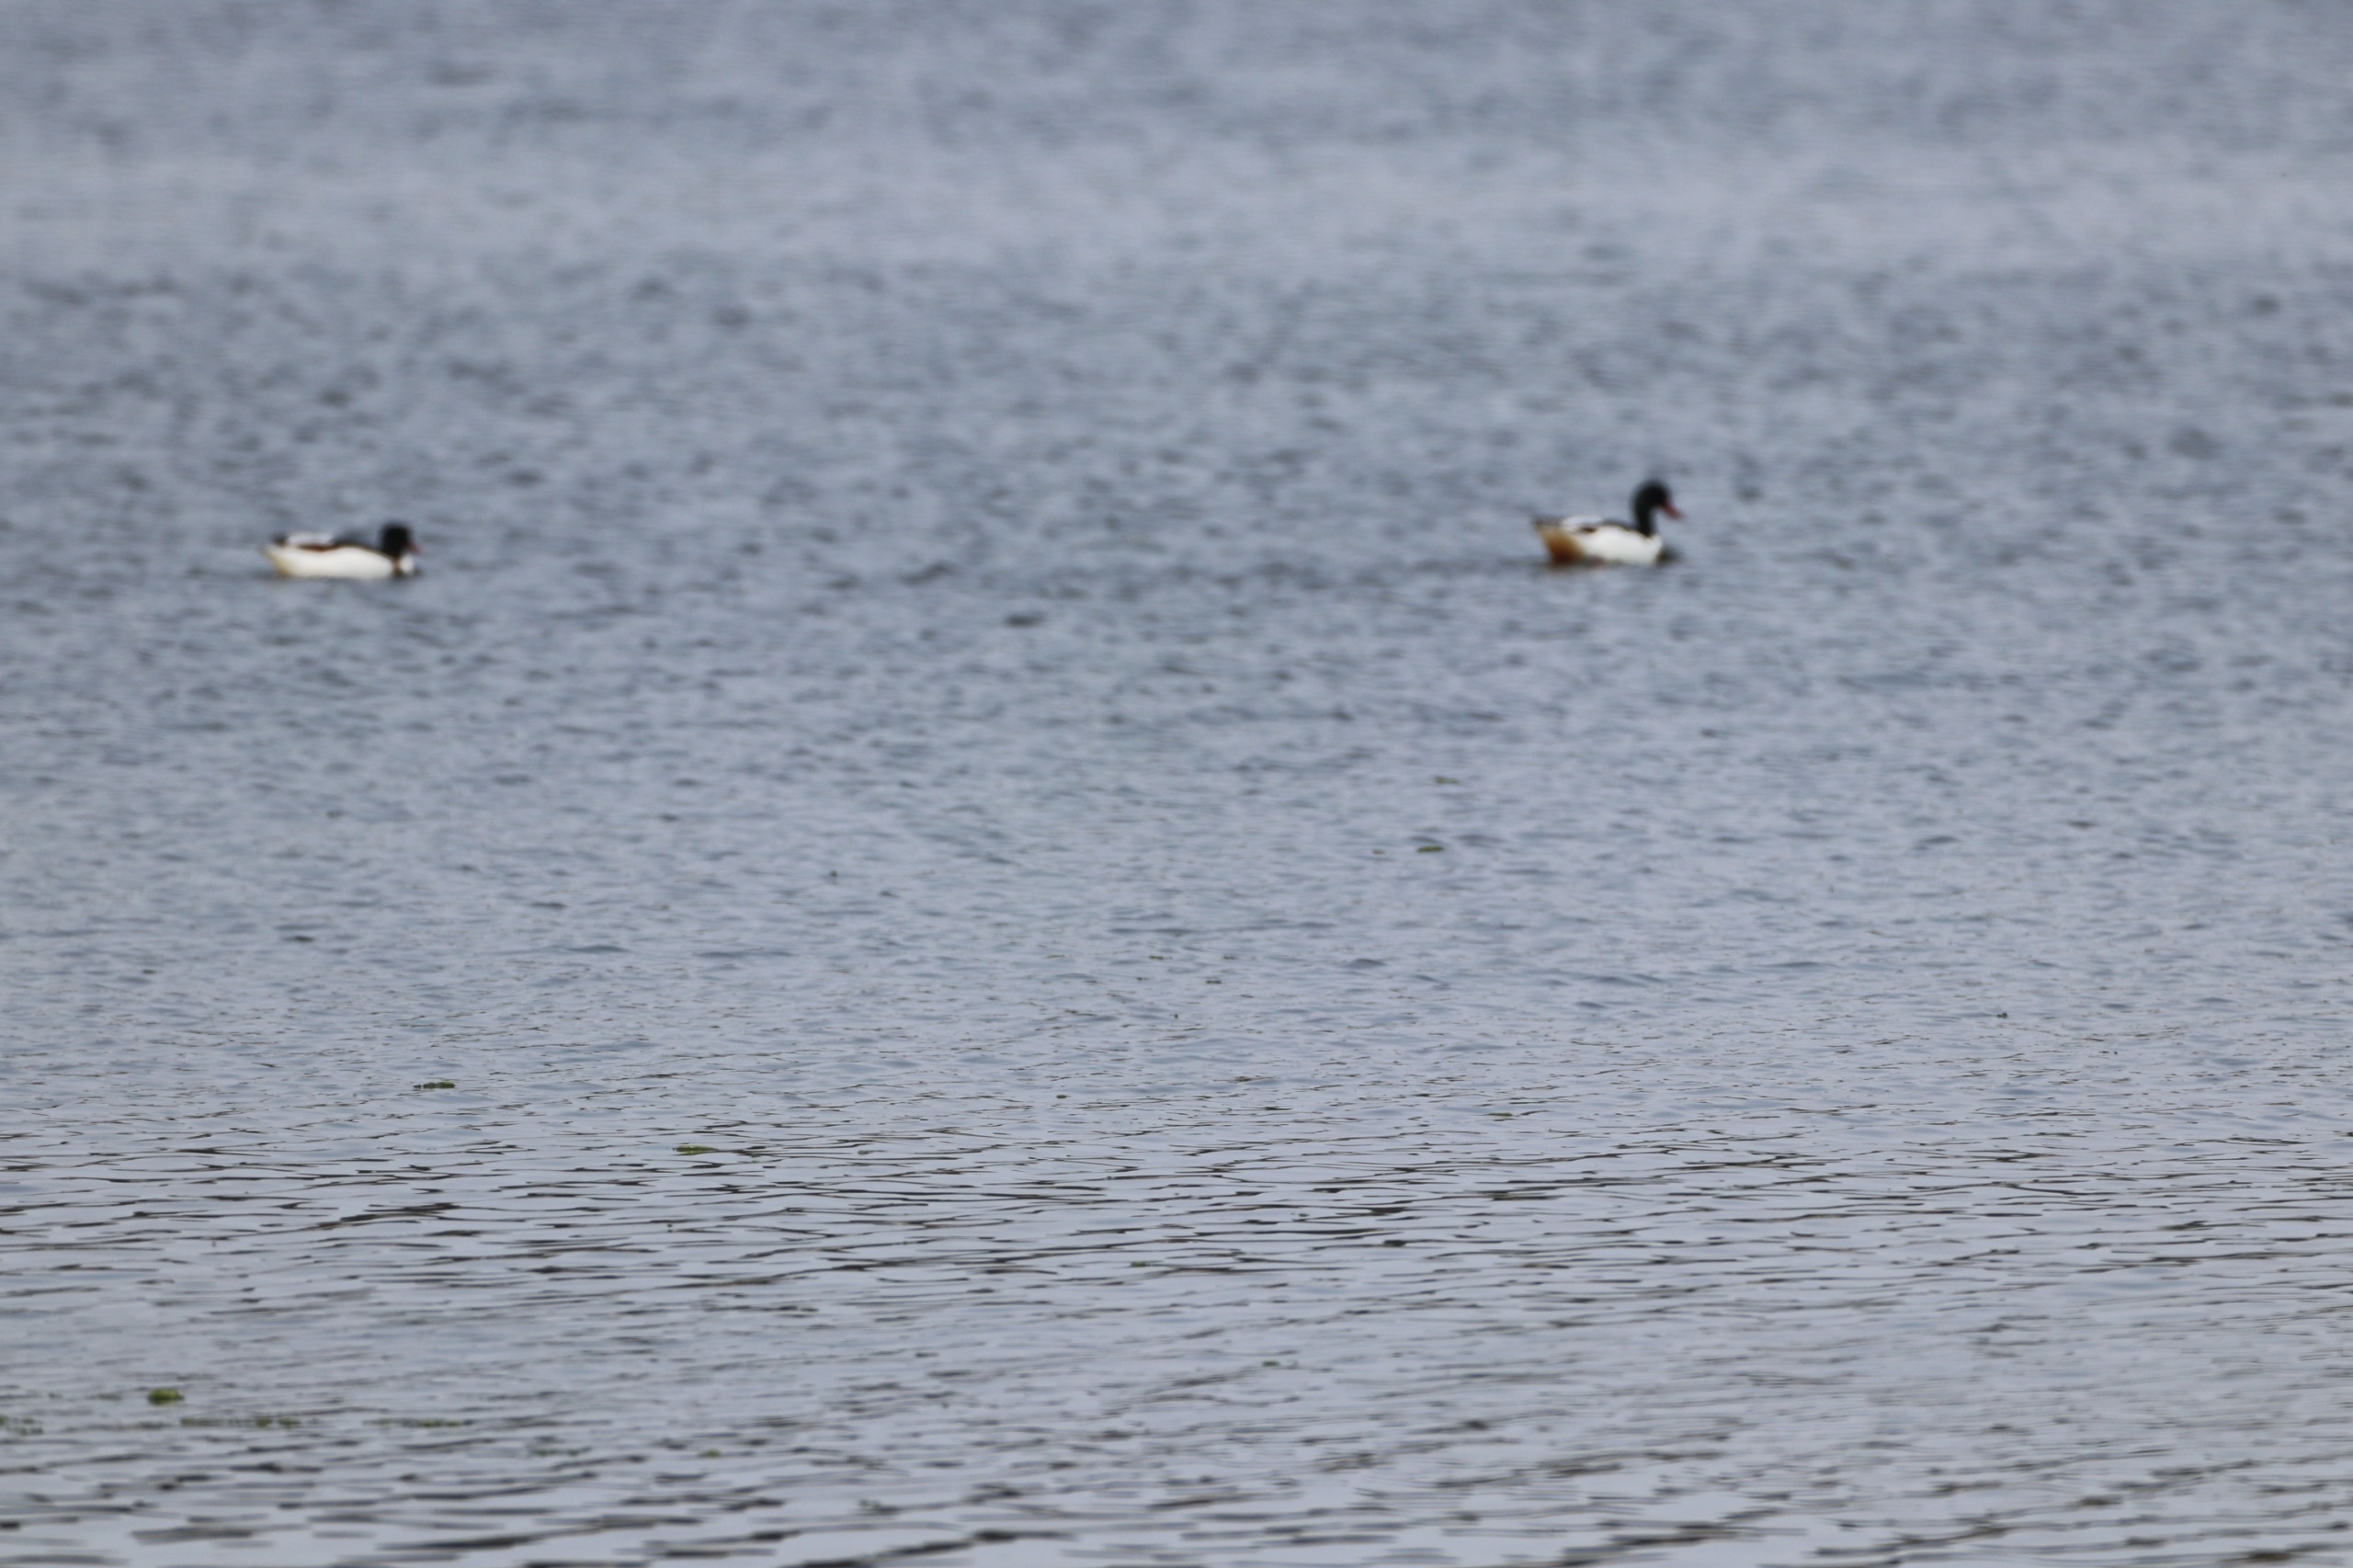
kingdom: Animalia
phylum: Chordata
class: Aves
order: Anseriformes
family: Anatidae
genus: Tadorna
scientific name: Tadorna tadorna
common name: Gravand
